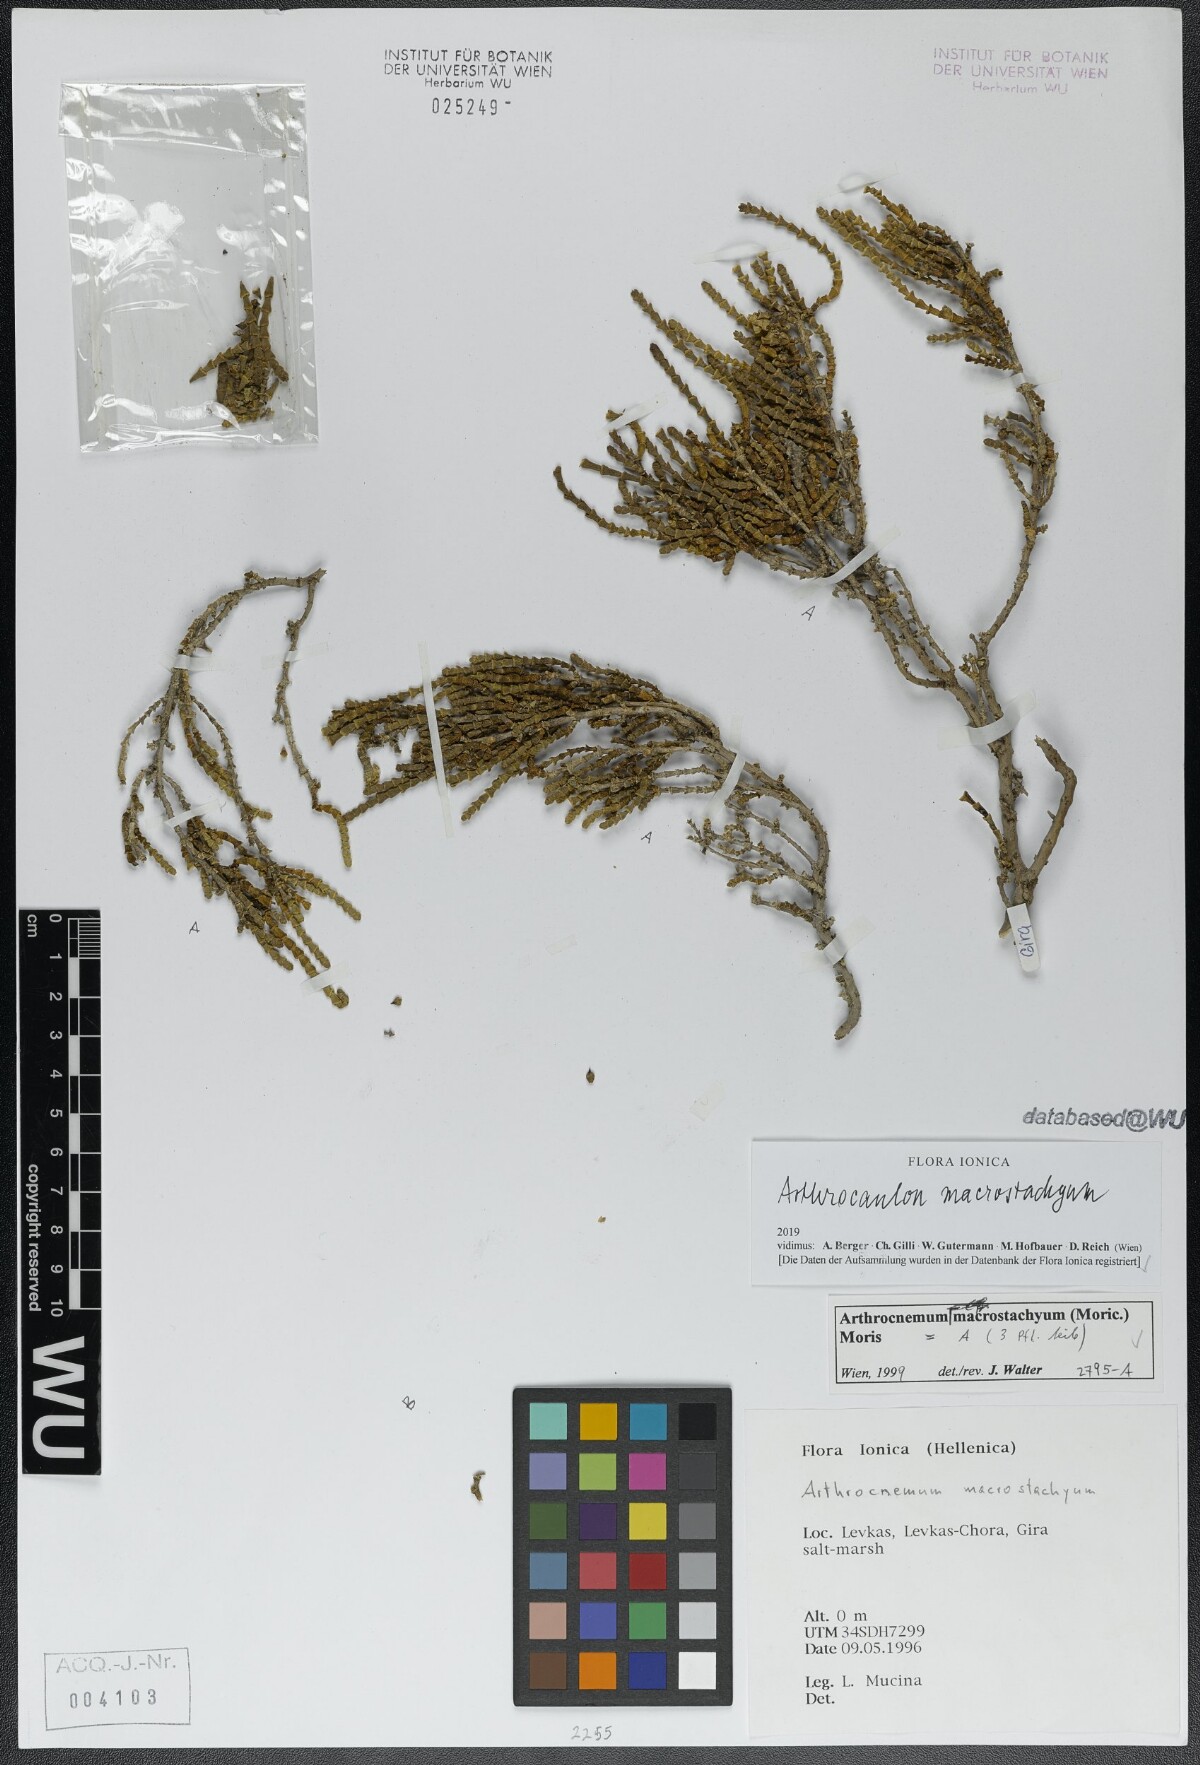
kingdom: Plantae
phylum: Tracheophyta
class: Magnoliopsida
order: Caryophyllales
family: Amaranthaceae
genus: Arthrocaulon
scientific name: Arthrocaulon macrostachyum
